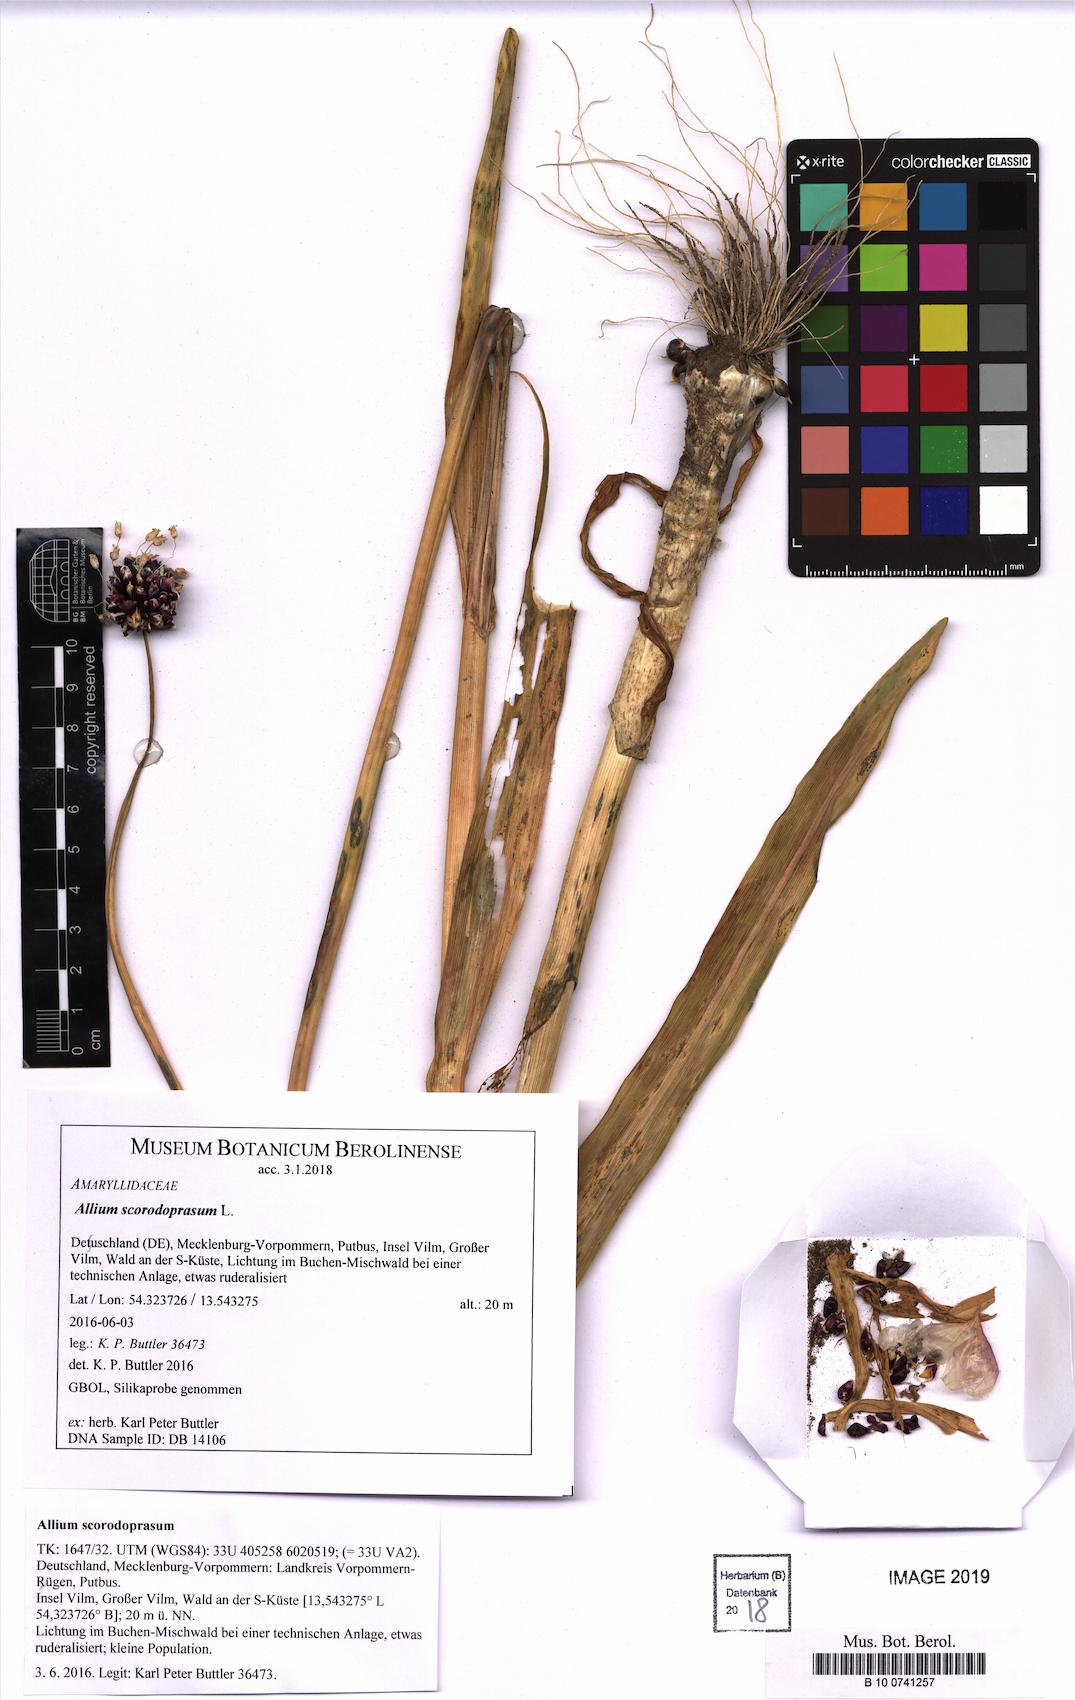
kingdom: Plantae
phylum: Tracheophyta
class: Liliopsida
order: Asparagales
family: Amaryllidaceae
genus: Allium
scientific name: Allium scorodoprasum
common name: Sand leek
